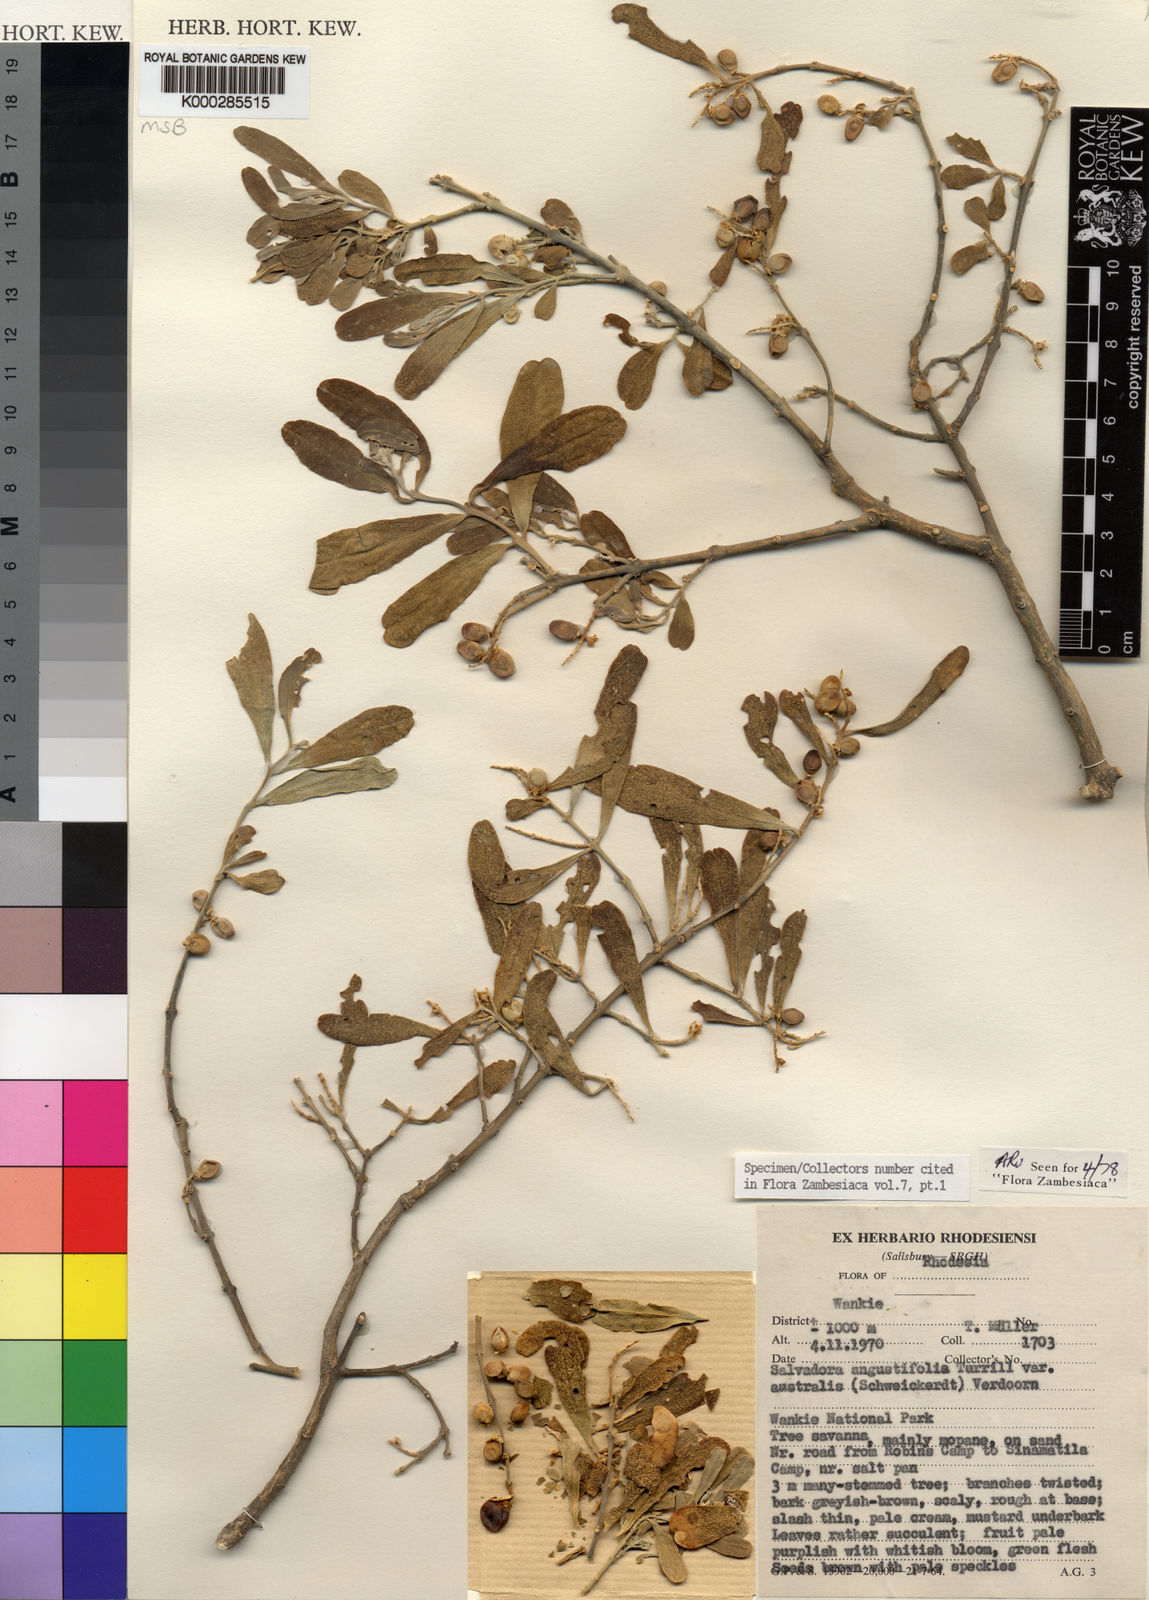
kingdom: Plantae
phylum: Tracheophyta
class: Magnoliopsida
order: Brassicales
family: Salvadoraceae
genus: Salvadora
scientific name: Salvadora australis
